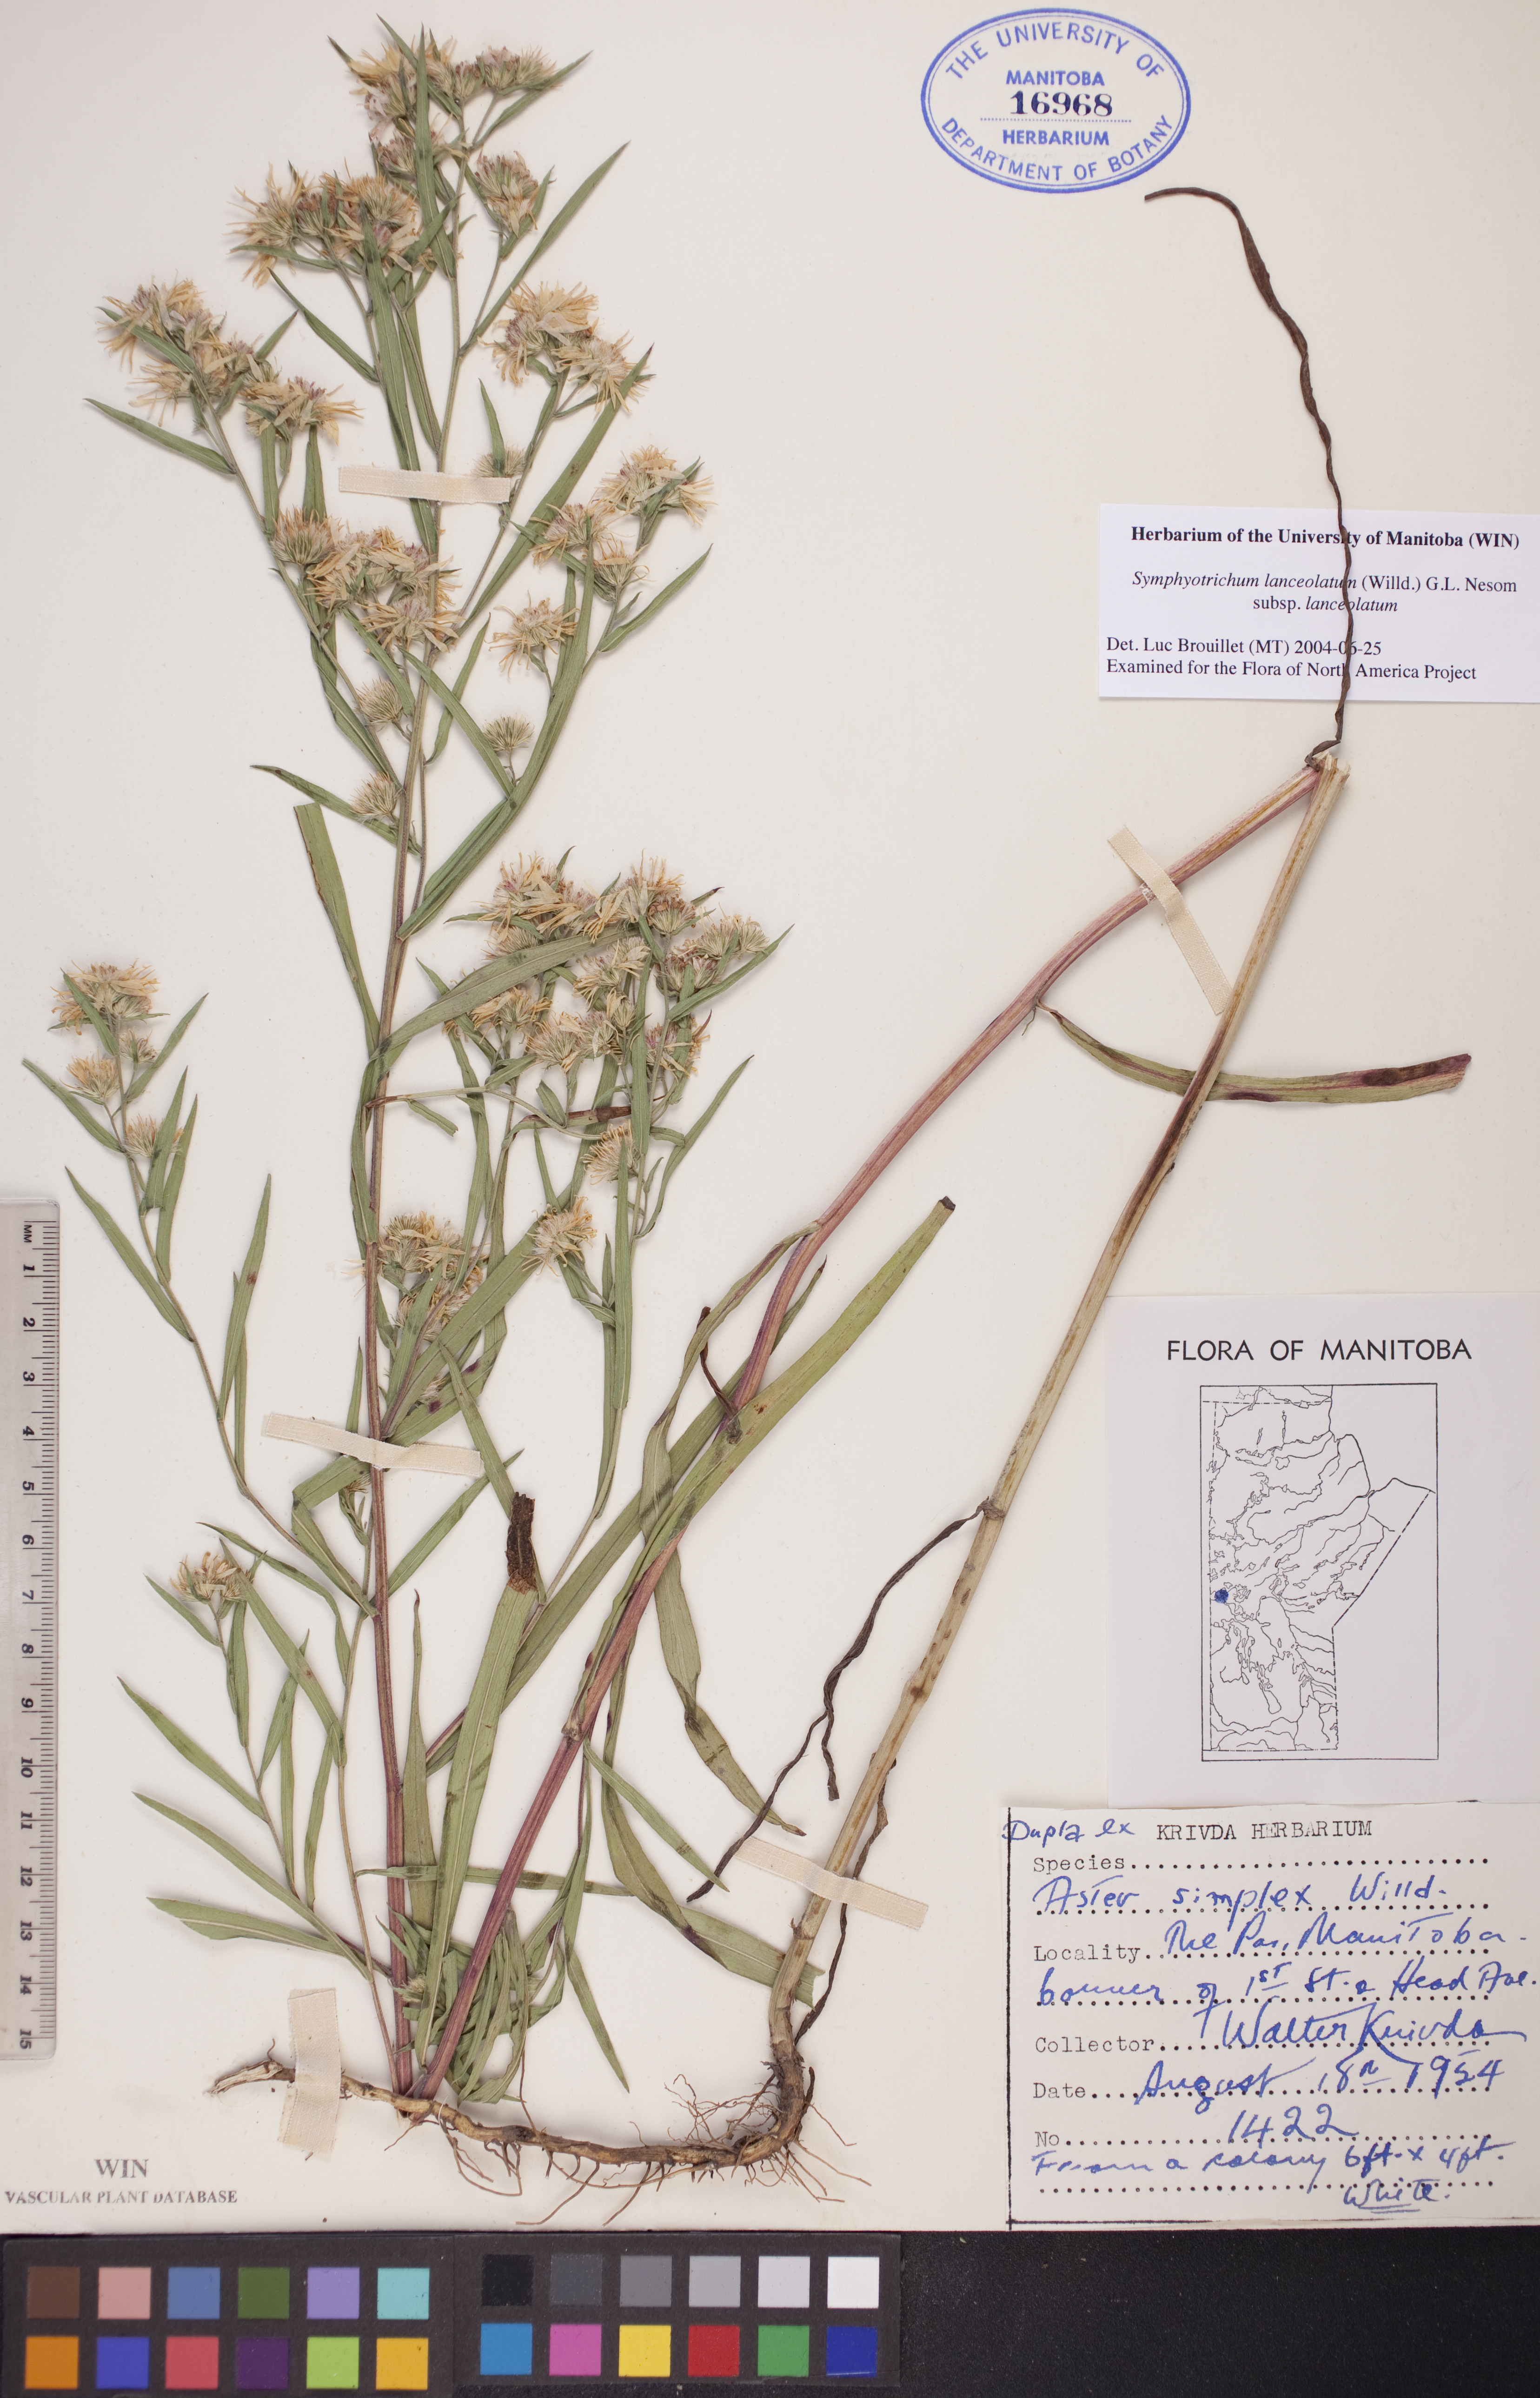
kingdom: Plantae
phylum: Tracheophyta
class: Magnoliopsida
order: Asterales
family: Asteraceae
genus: Symphyotrichum
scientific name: Symphyotrichum lanceolatum
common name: Panicled aster
